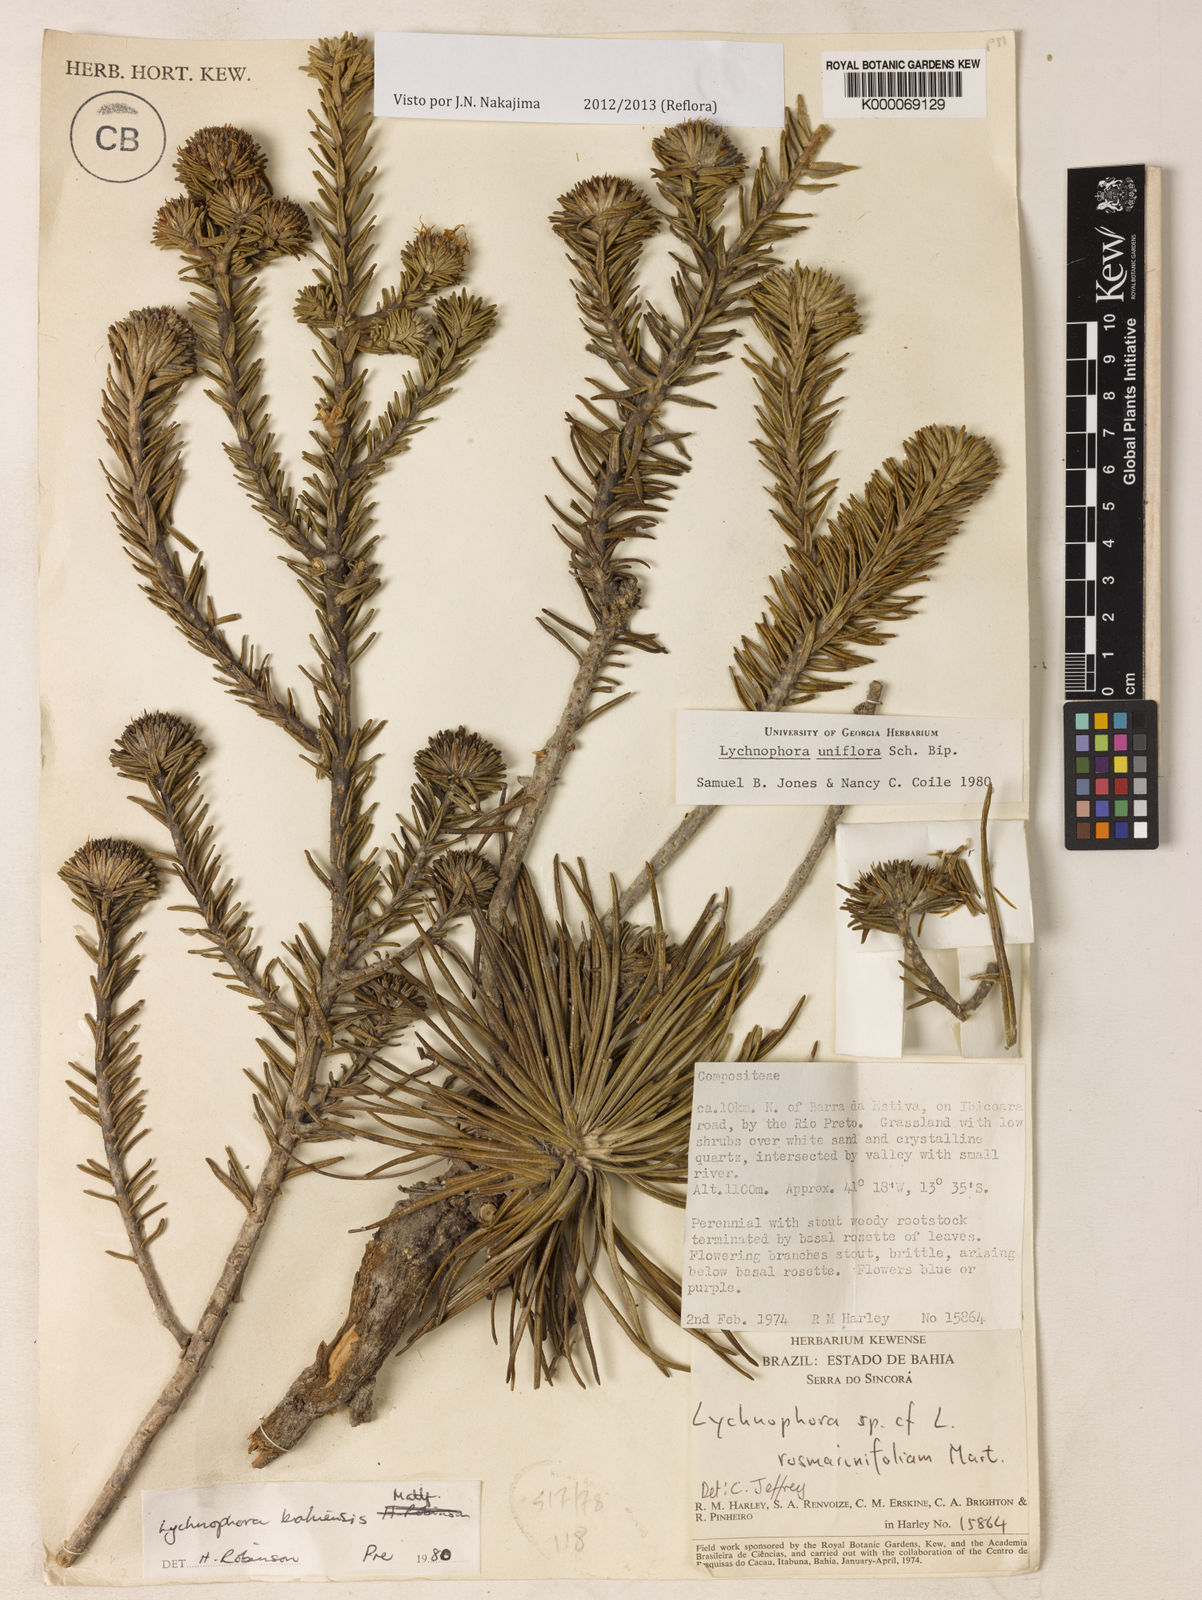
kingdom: Plantae
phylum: Tracheophyta
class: Magnoliopsida
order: Asterales
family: Asteraceae
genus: Lychnophora
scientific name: Lychnophora uniflora
